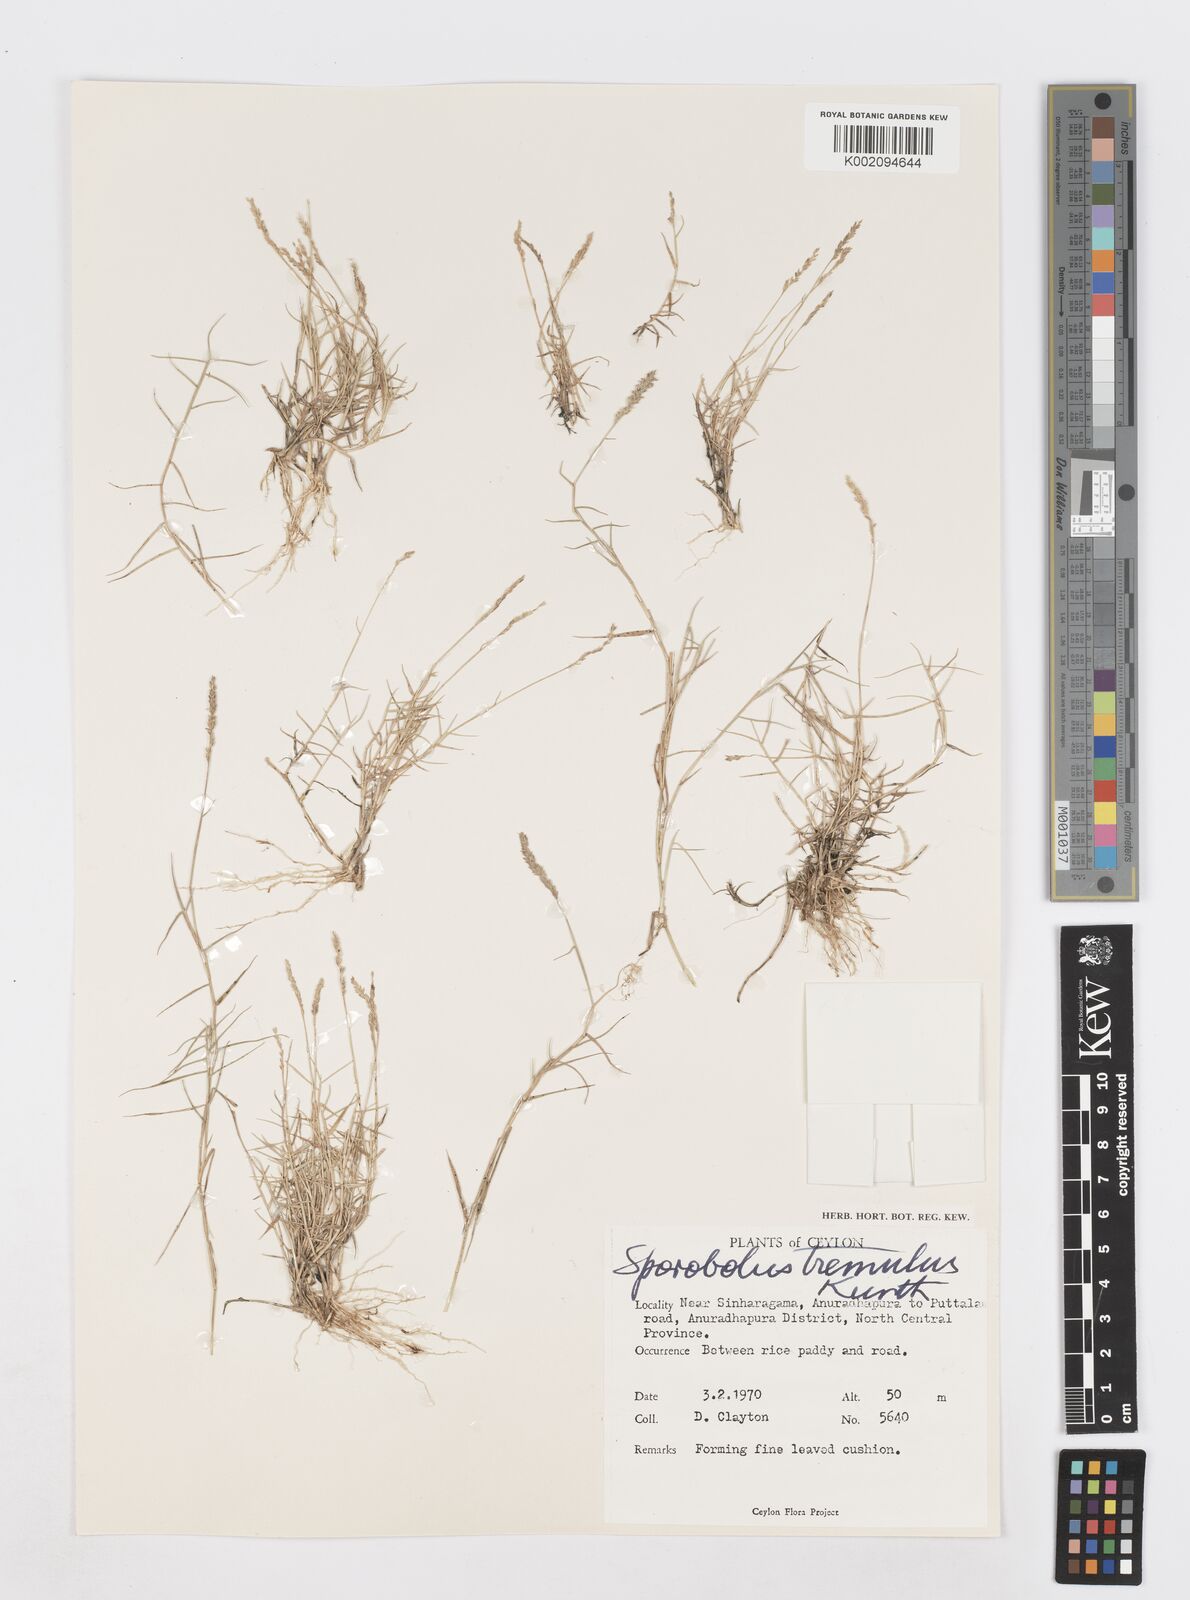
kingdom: Plantae
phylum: Tracheophyta
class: Liliopsida
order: Poales
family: Poaceae
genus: Sporobolus
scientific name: Sporobolus virginicus
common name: Beach dropseed
